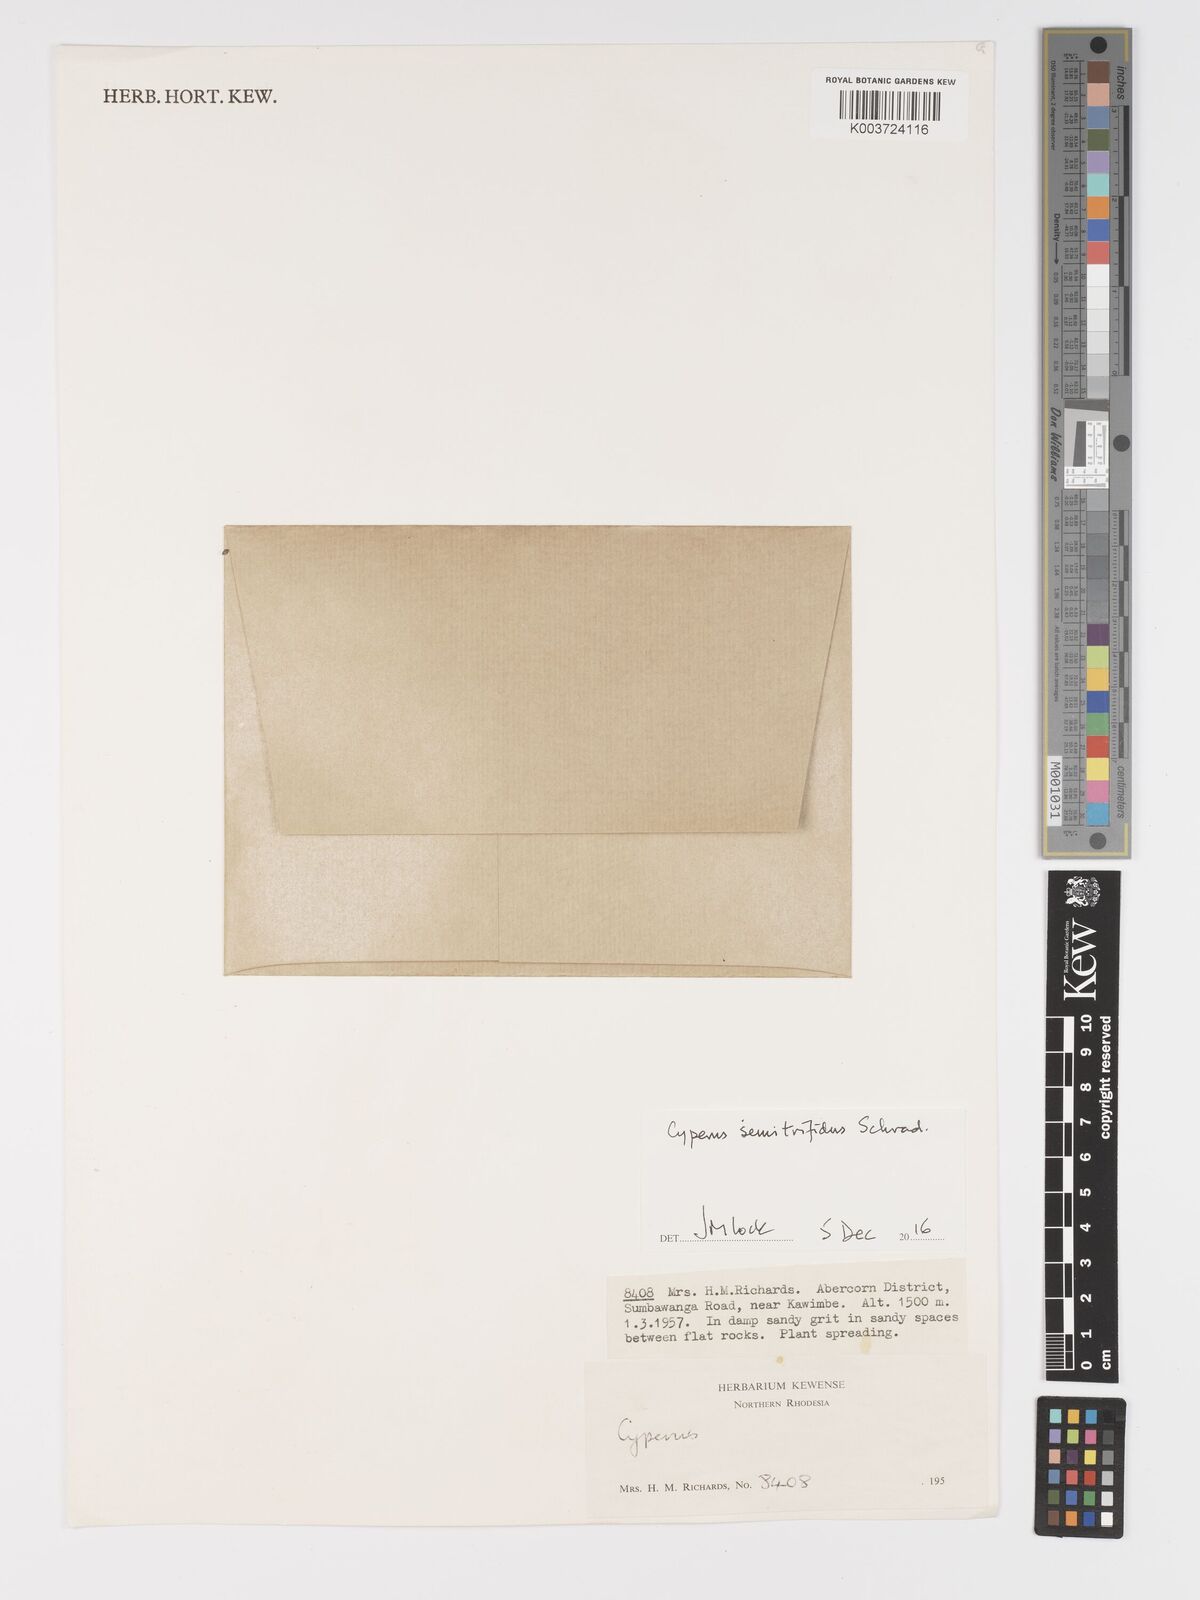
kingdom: Plantae
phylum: Tracheophyta
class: Liliopsida
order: Poales
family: Cyperaceae
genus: Cyperus
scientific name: Cyperus semitrifidus
